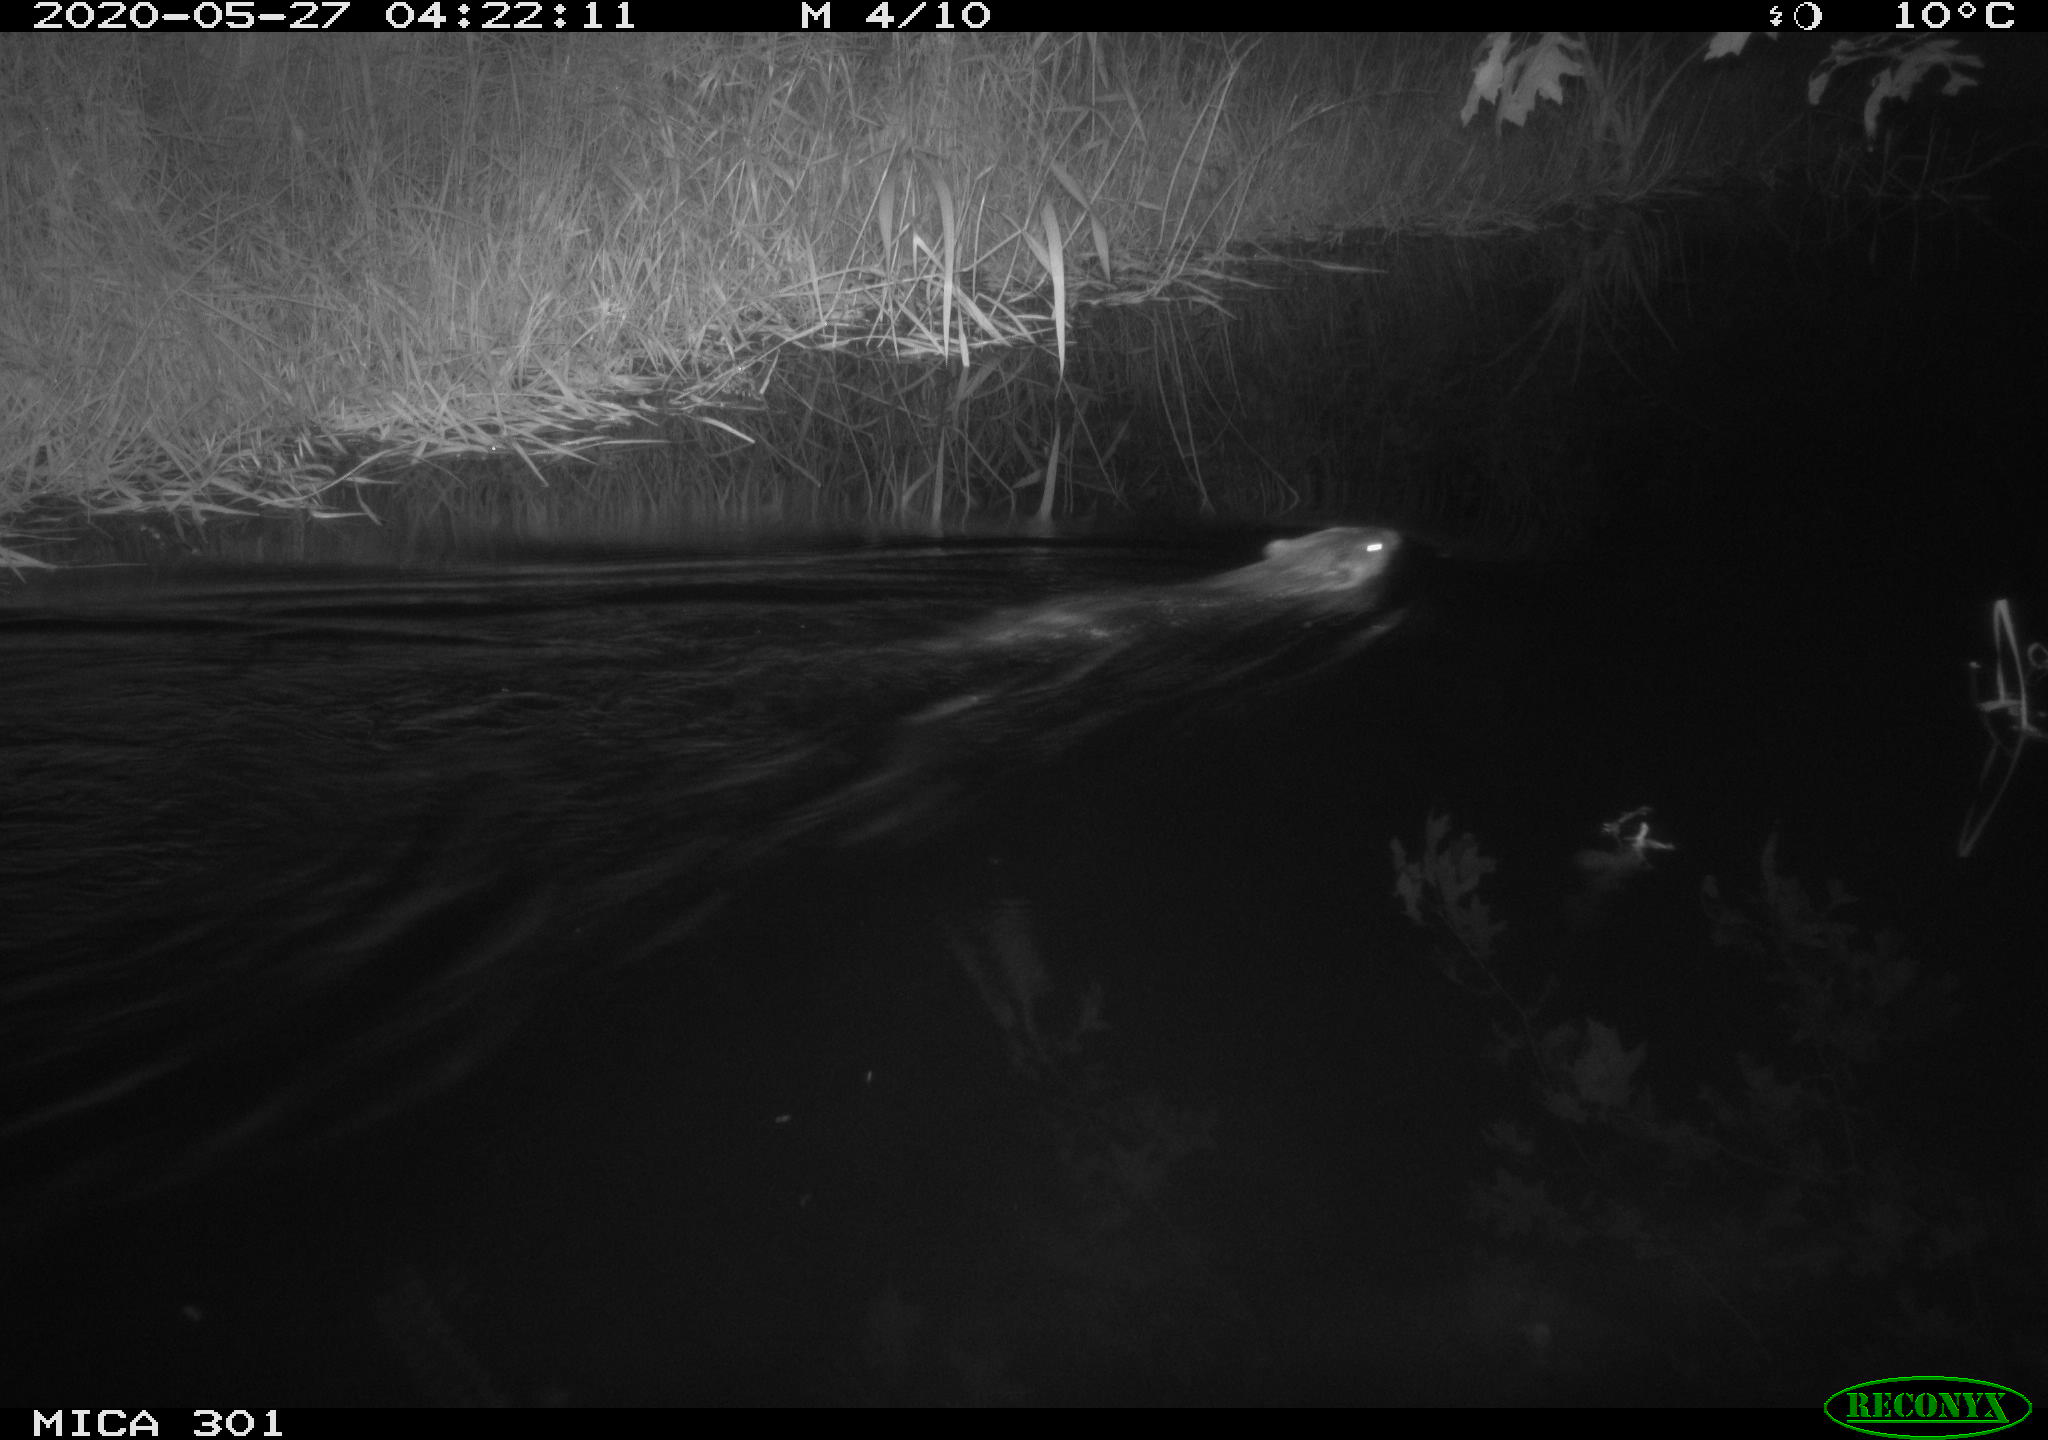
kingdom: Animalia
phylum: Chordata
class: Mammalia
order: Rodentia
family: Castoridae
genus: Castor
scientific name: Castor fiber
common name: Eurasian beaver
